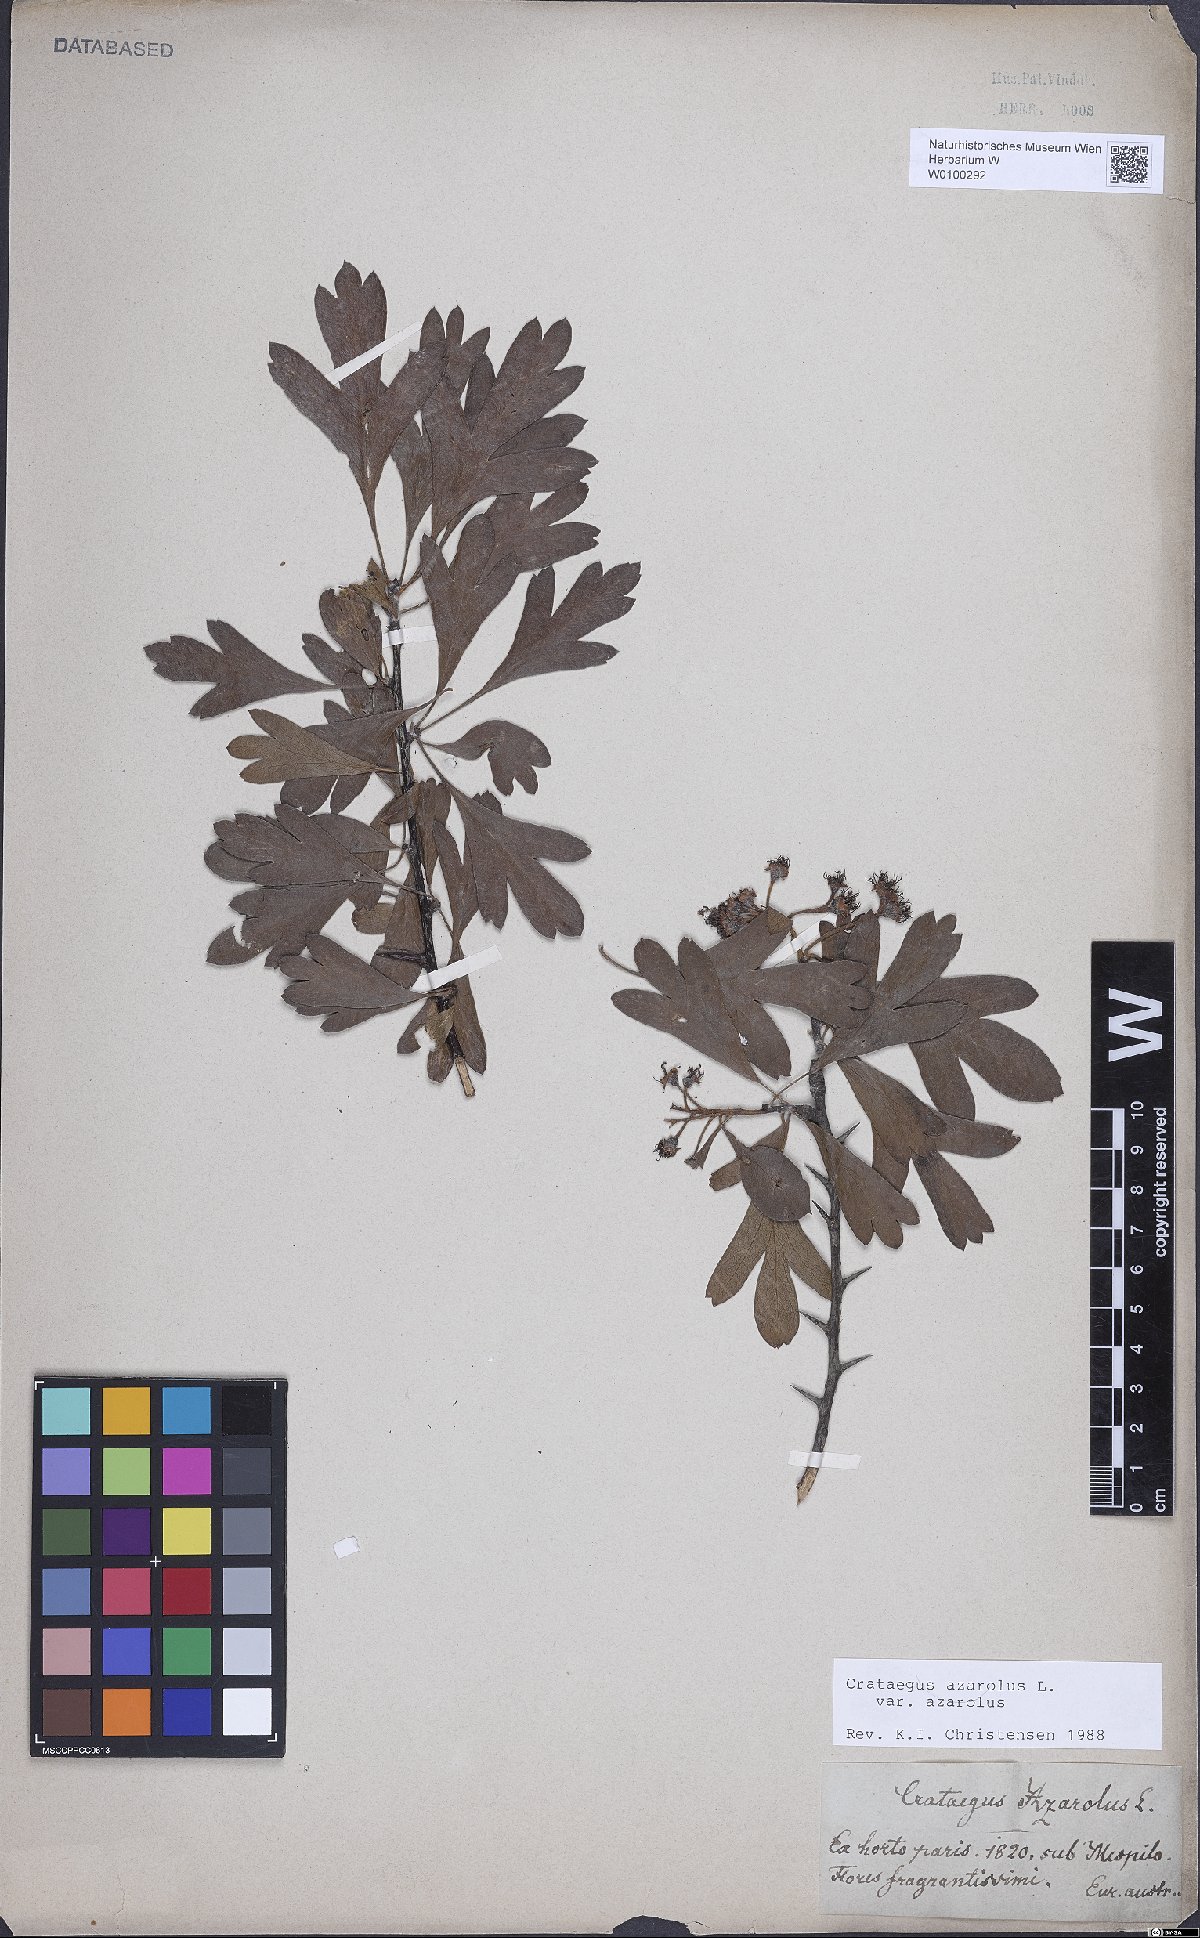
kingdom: Plantae
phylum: Tracheophyta
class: Magnoliopsida
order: Rosales
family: Rosaceae
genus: Crataegus
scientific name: Crataegus azarolus
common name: Azarole
